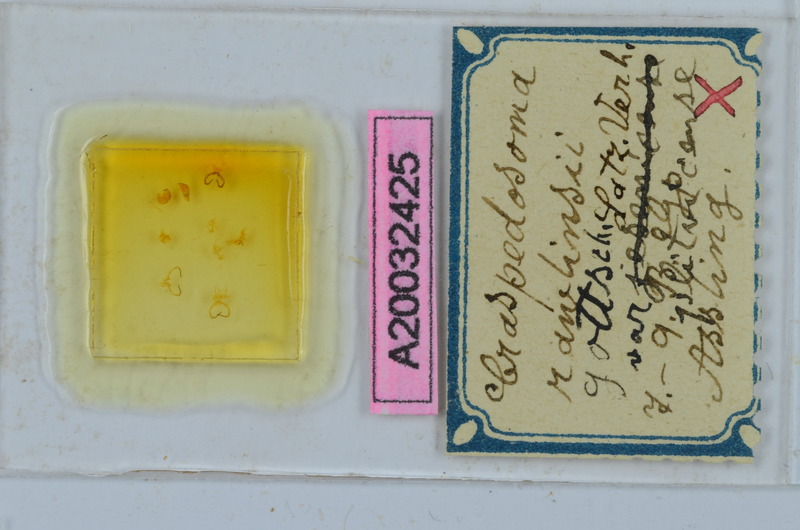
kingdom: Animalia
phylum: Arthropoda
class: Diplopoda
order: Chordeumatida
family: Craspedosomatidae
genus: Craspedosoma
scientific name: Craspedosoma slavum
